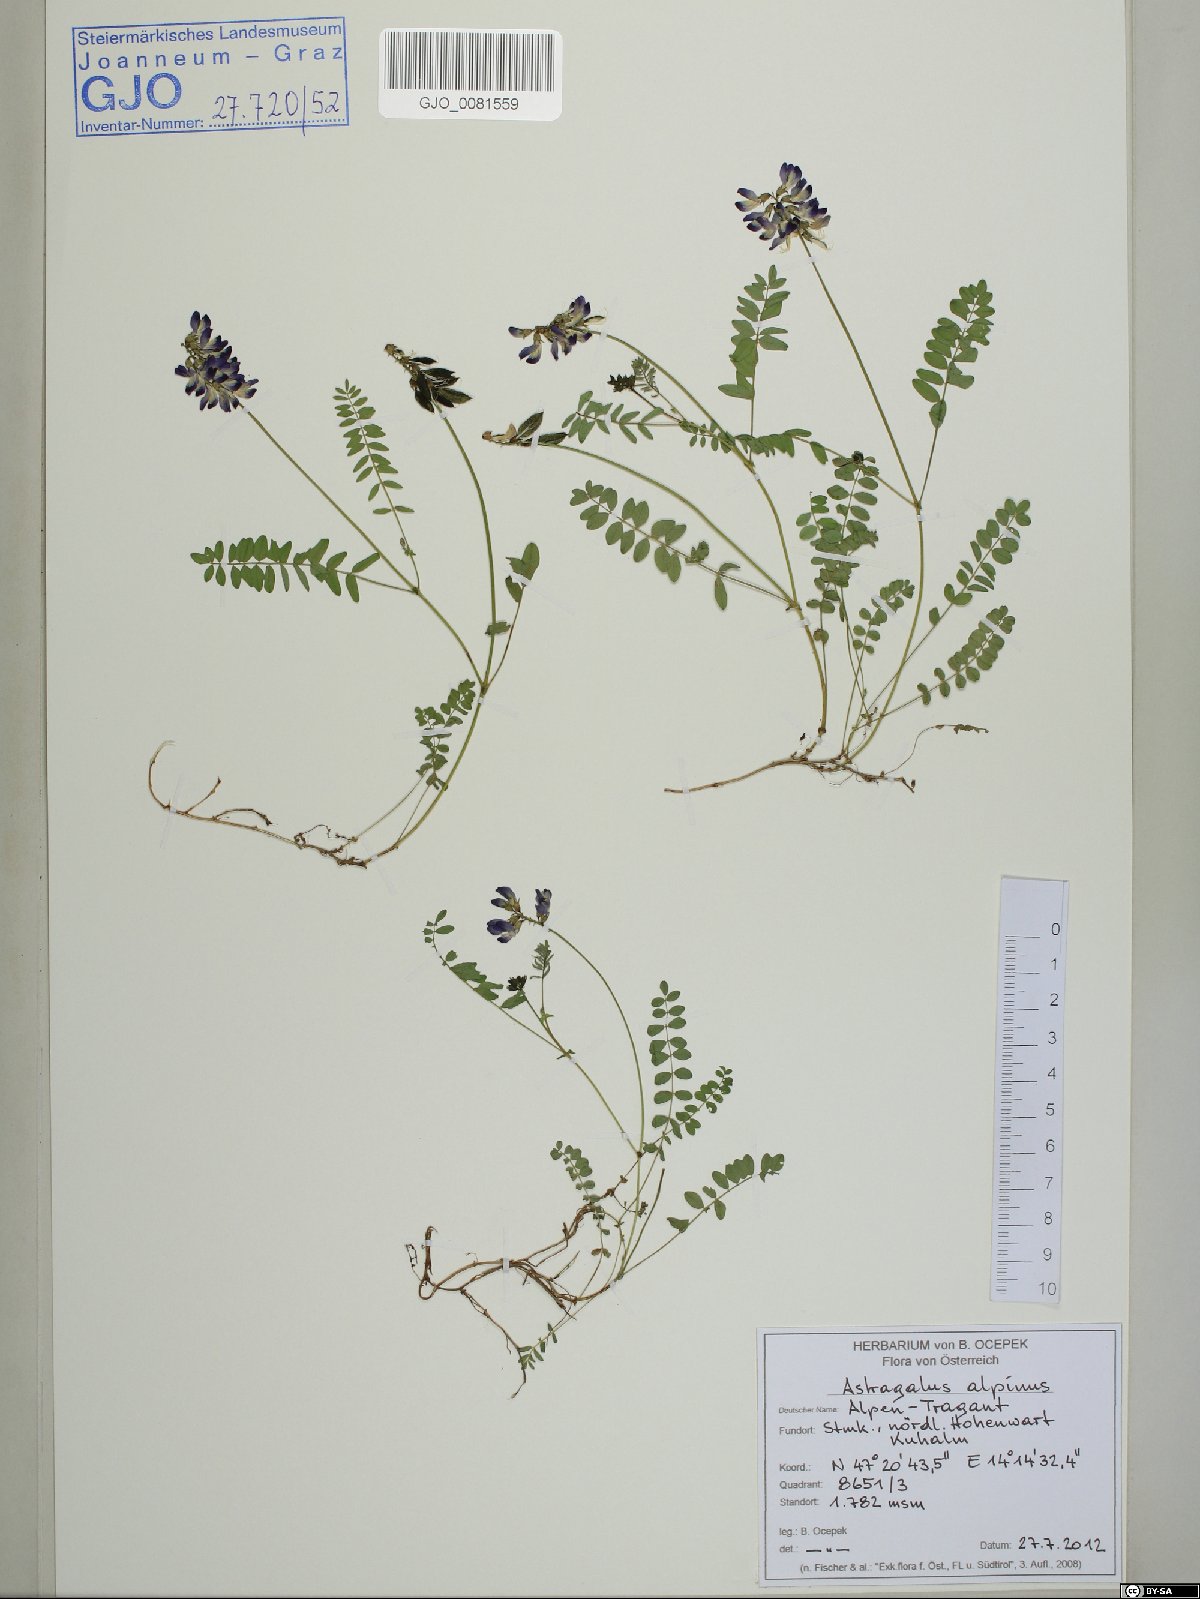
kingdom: Plantae
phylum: Tracheophyta
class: Magnoliopsida
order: Fabales
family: Fabaceae
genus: Astragalus
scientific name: Astragalus alpinus
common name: Alpine milk-vetch
